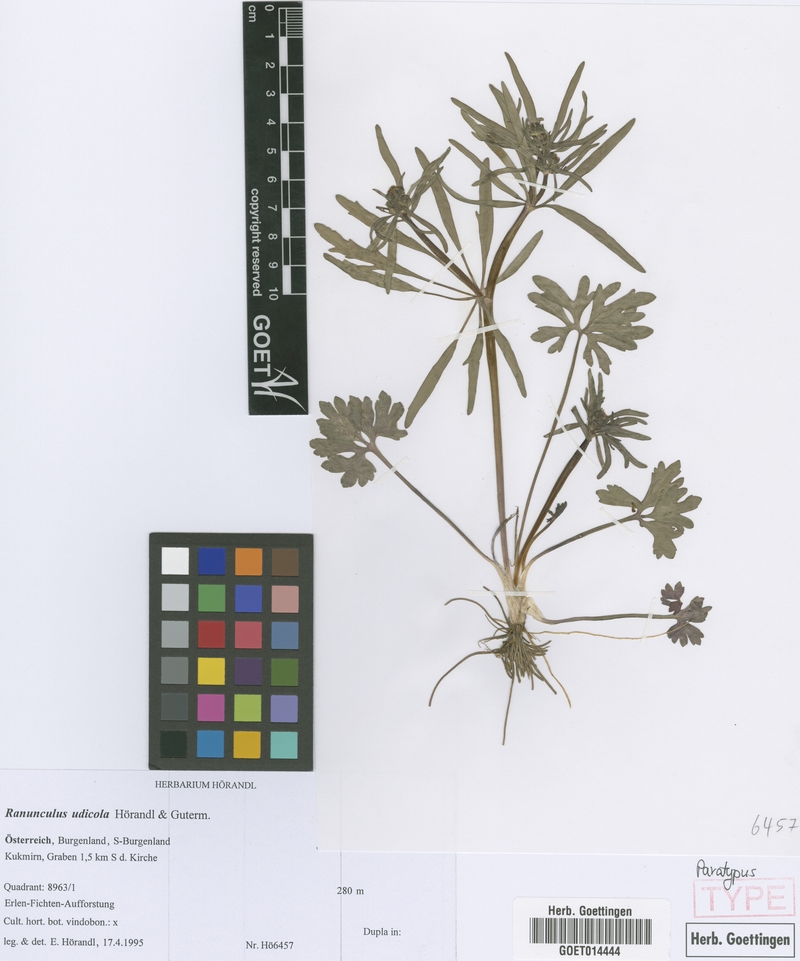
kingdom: Plantae
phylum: Tracheophyta
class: Magnoliopsida
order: Ranunculales
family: Ranunculaceae
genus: Ranunculus
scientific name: Ranunculus udicola
